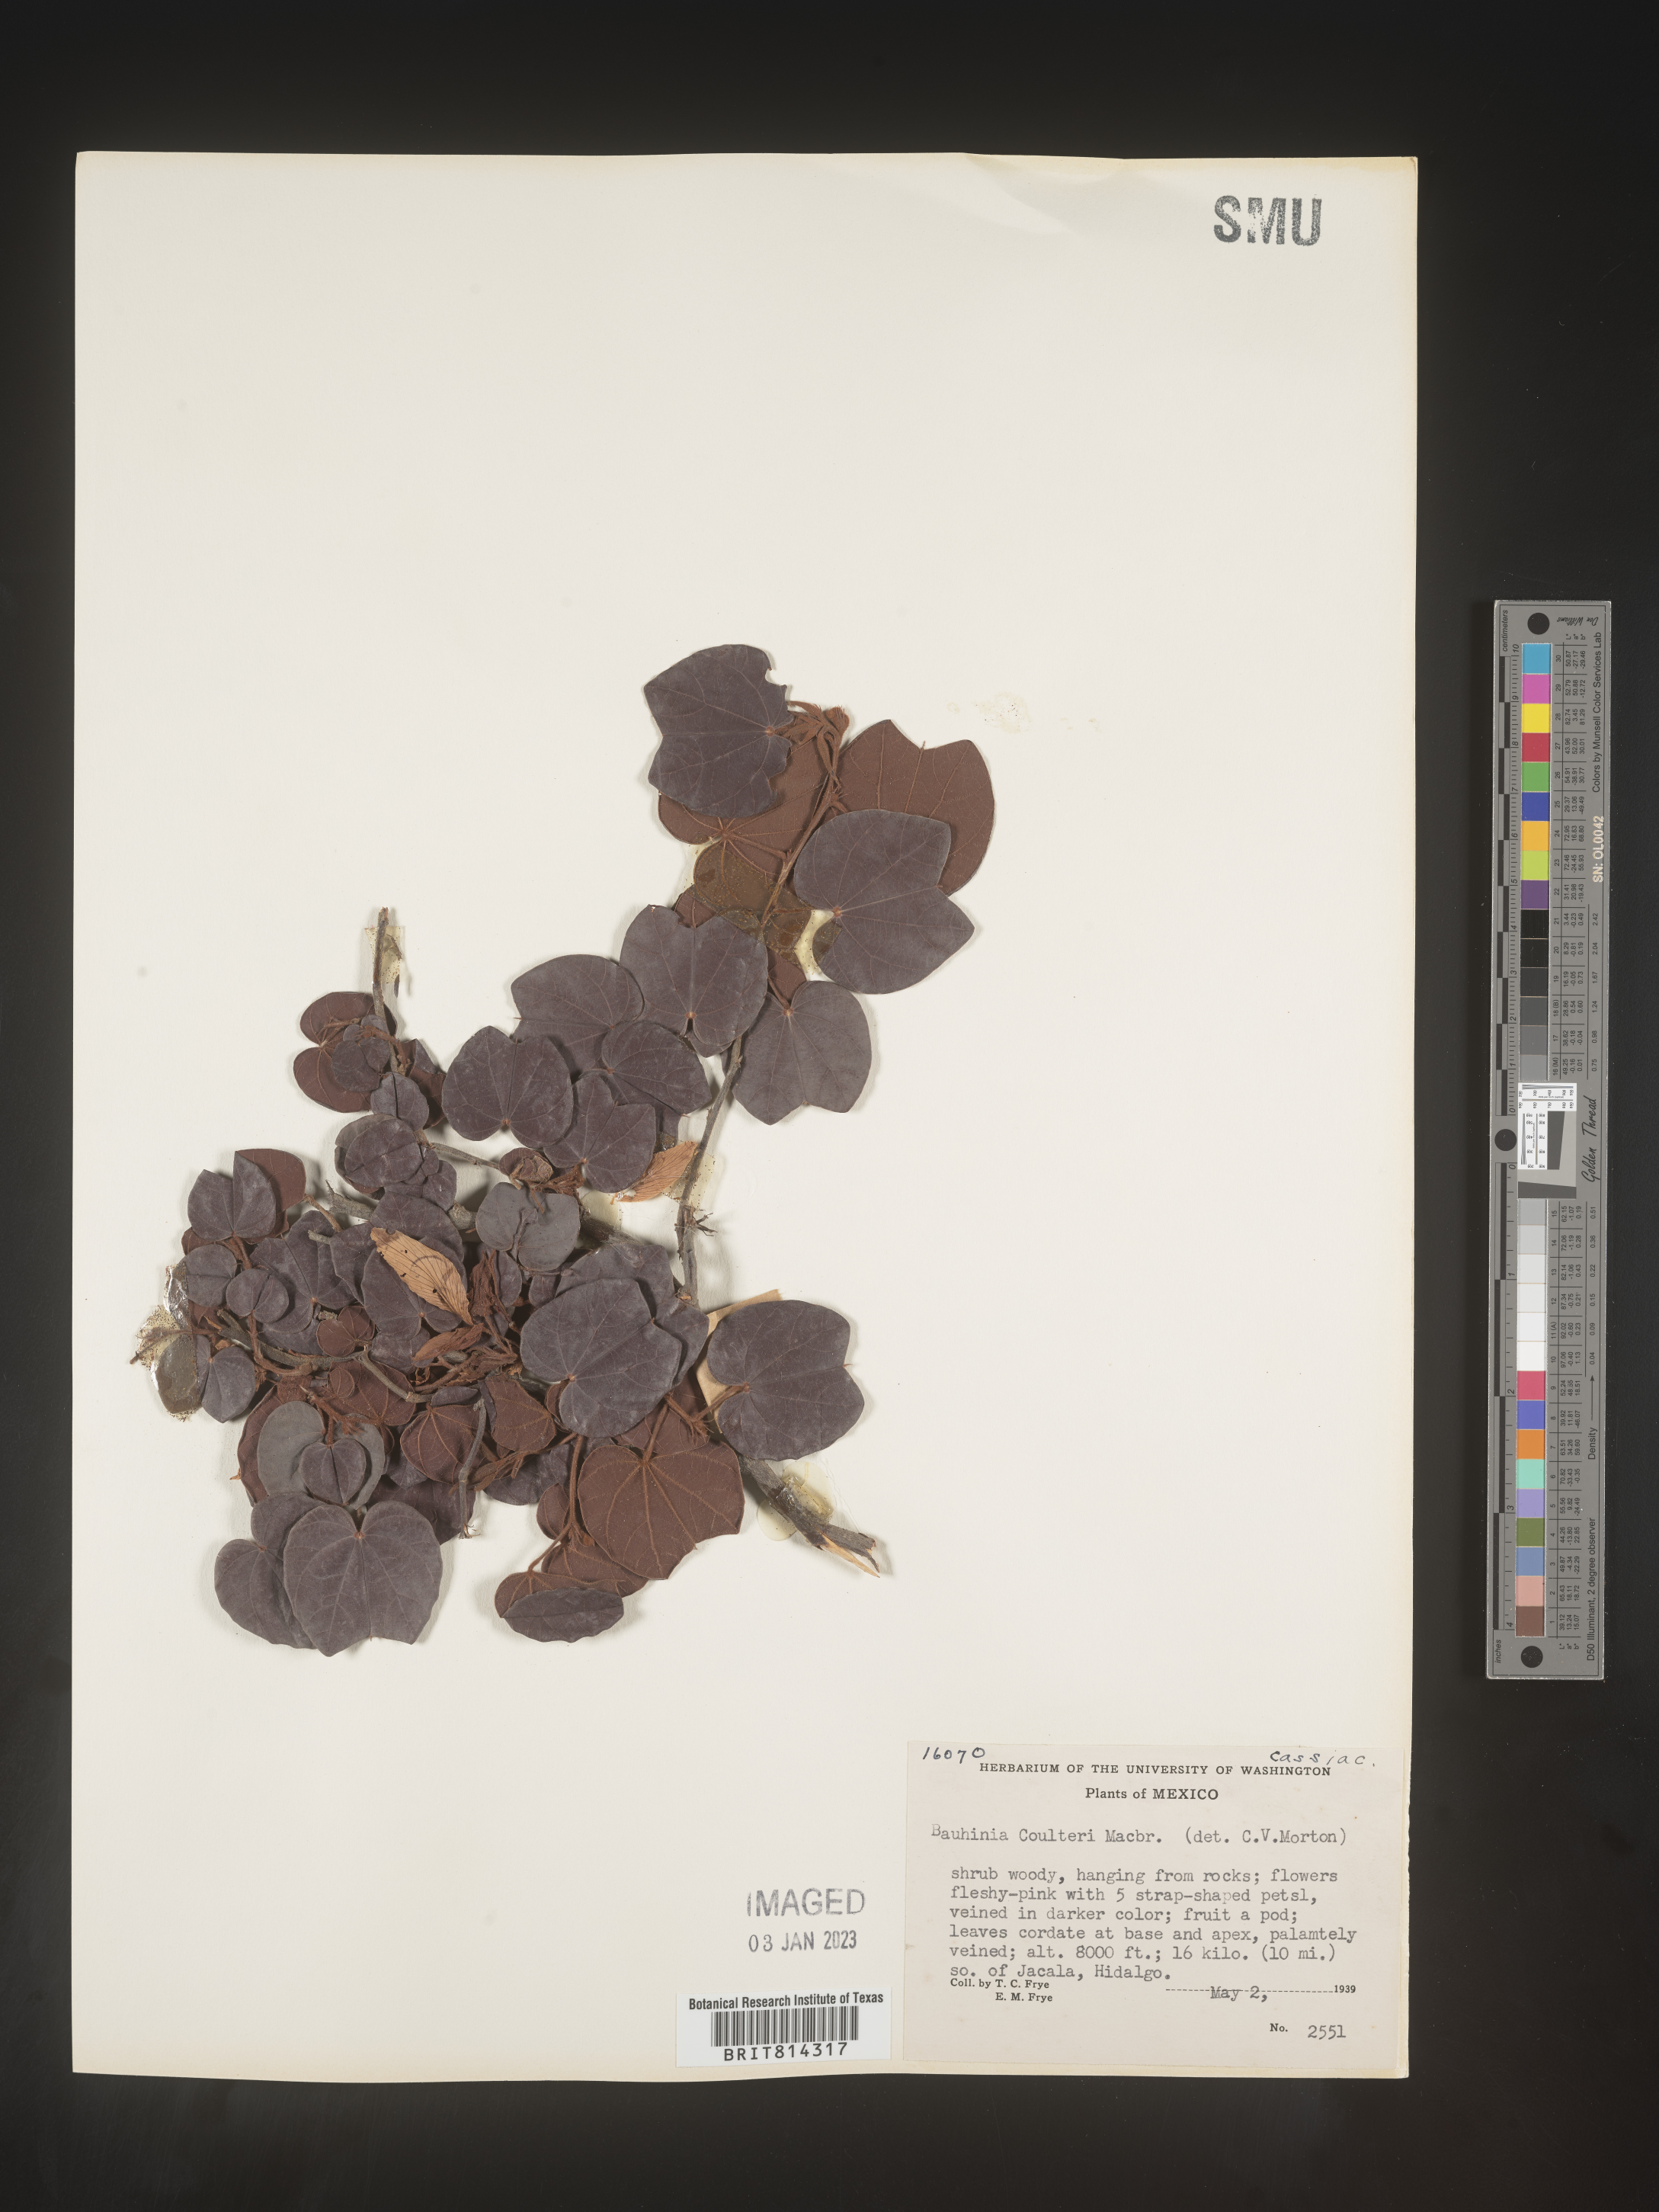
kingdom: Plantae
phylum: Tracheophyta
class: Magnoliopsida
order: Fabales
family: Fabaceae
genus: Bauhinia
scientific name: Bauhinia
